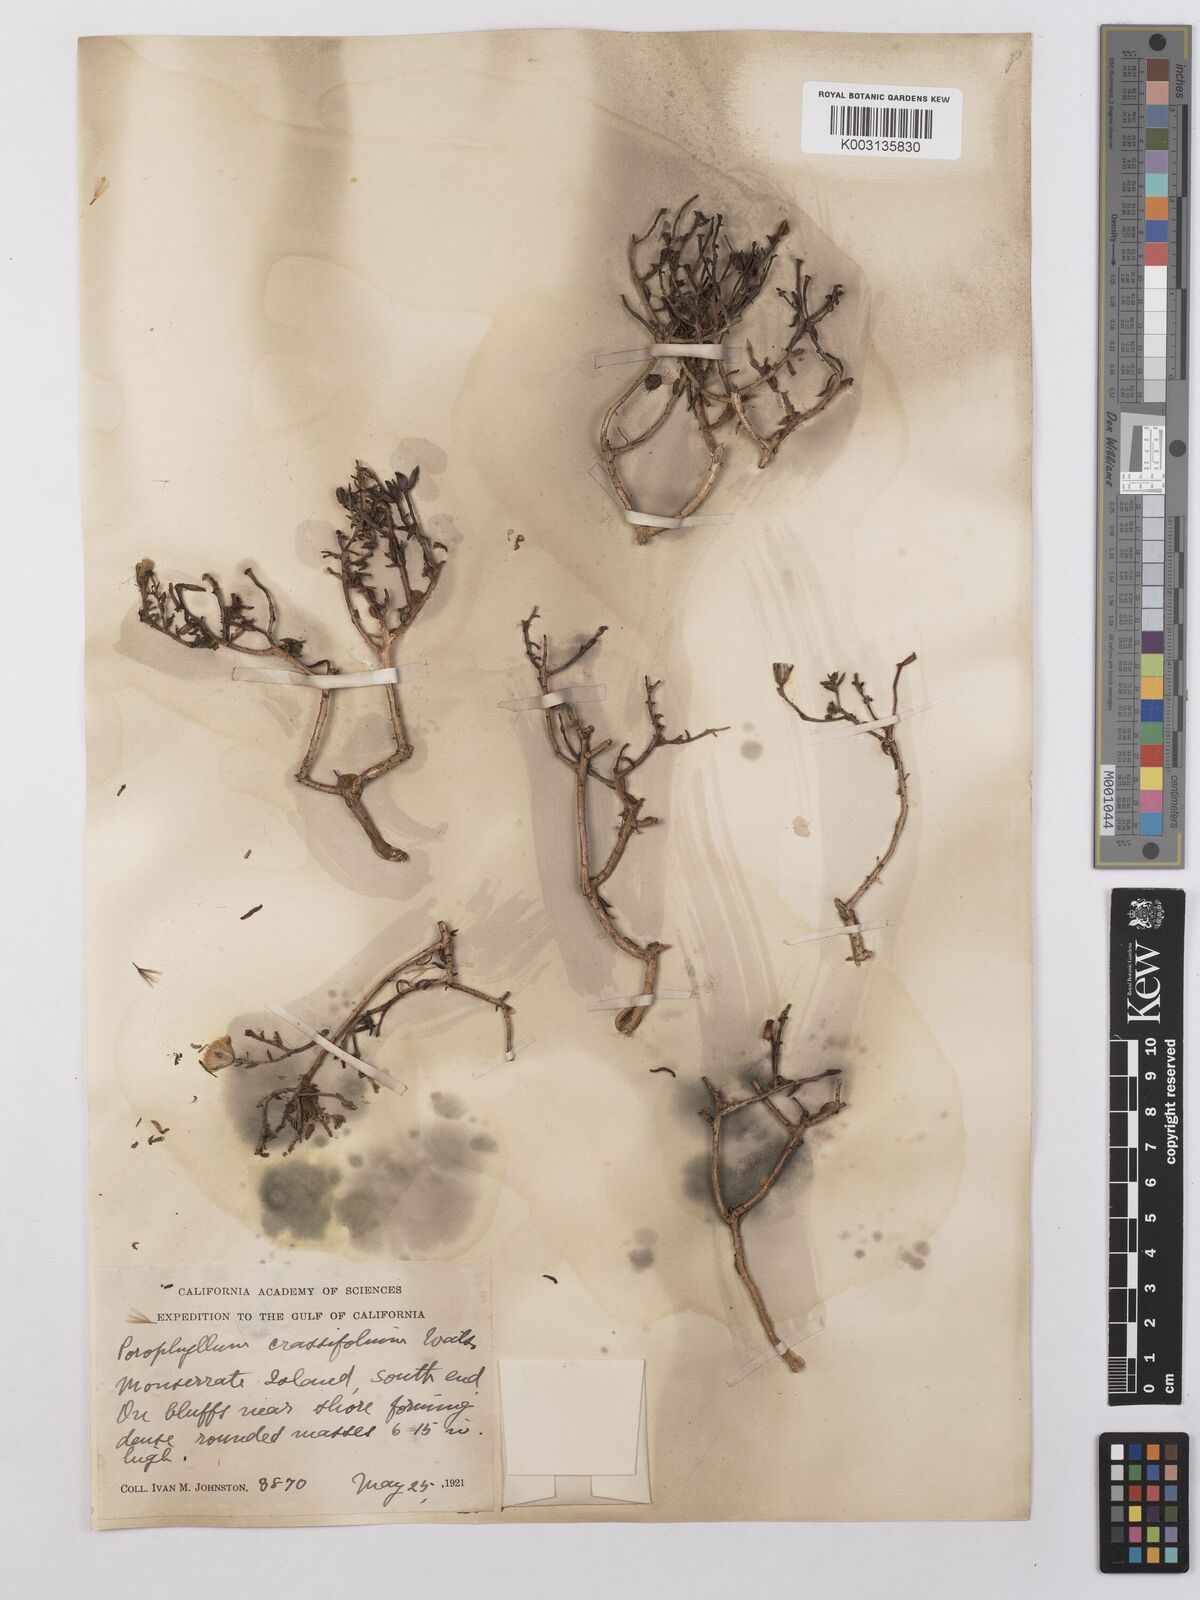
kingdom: Plantae
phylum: Tracheophyta
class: Magnoliopsida
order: Asterales
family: Asteraceae
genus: Bajacalia
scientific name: Bajacalia crassifolia
